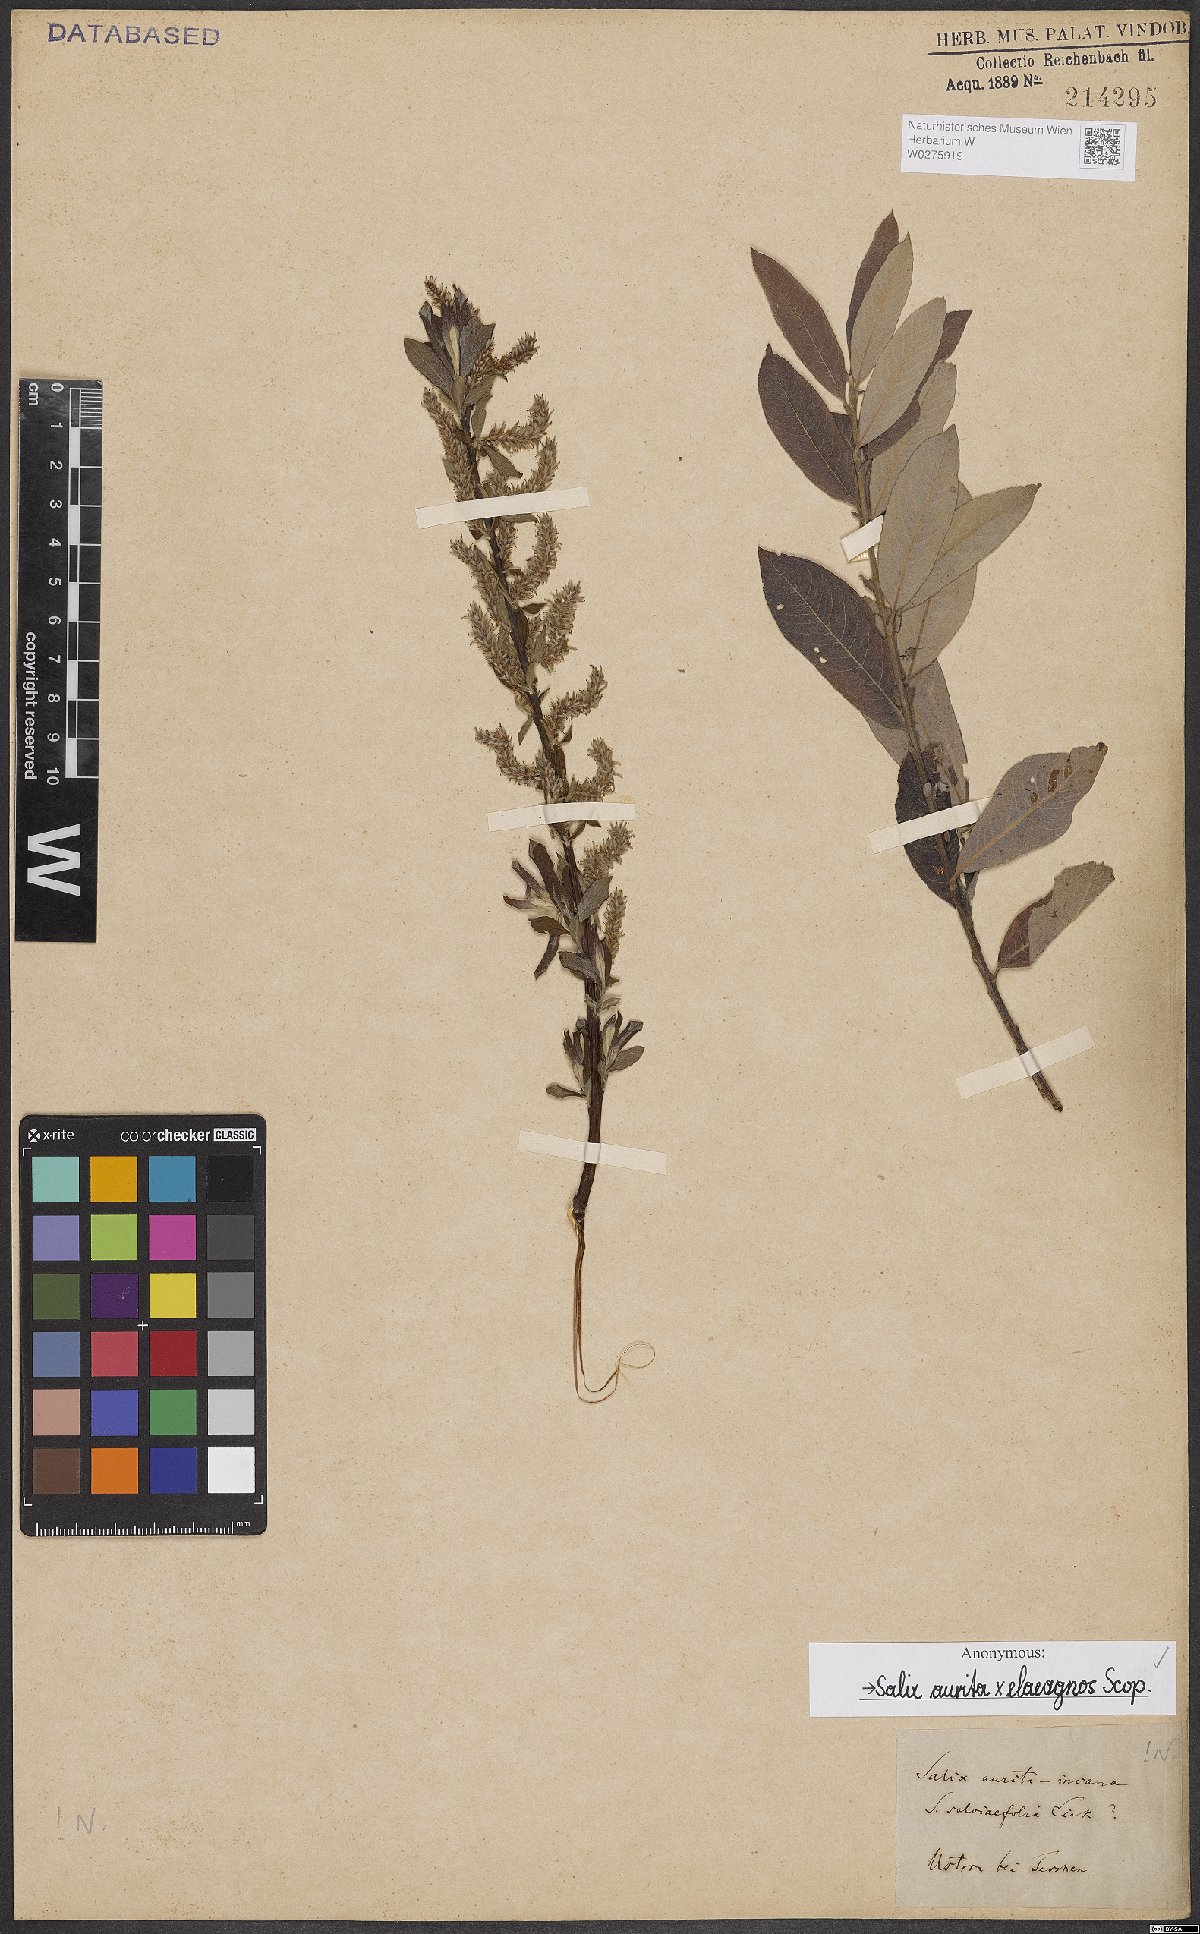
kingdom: Plantae
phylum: Tracheophyta
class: Magnoliopsida
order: Malpighiales
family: Salicaceae
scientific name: Salicaceae
